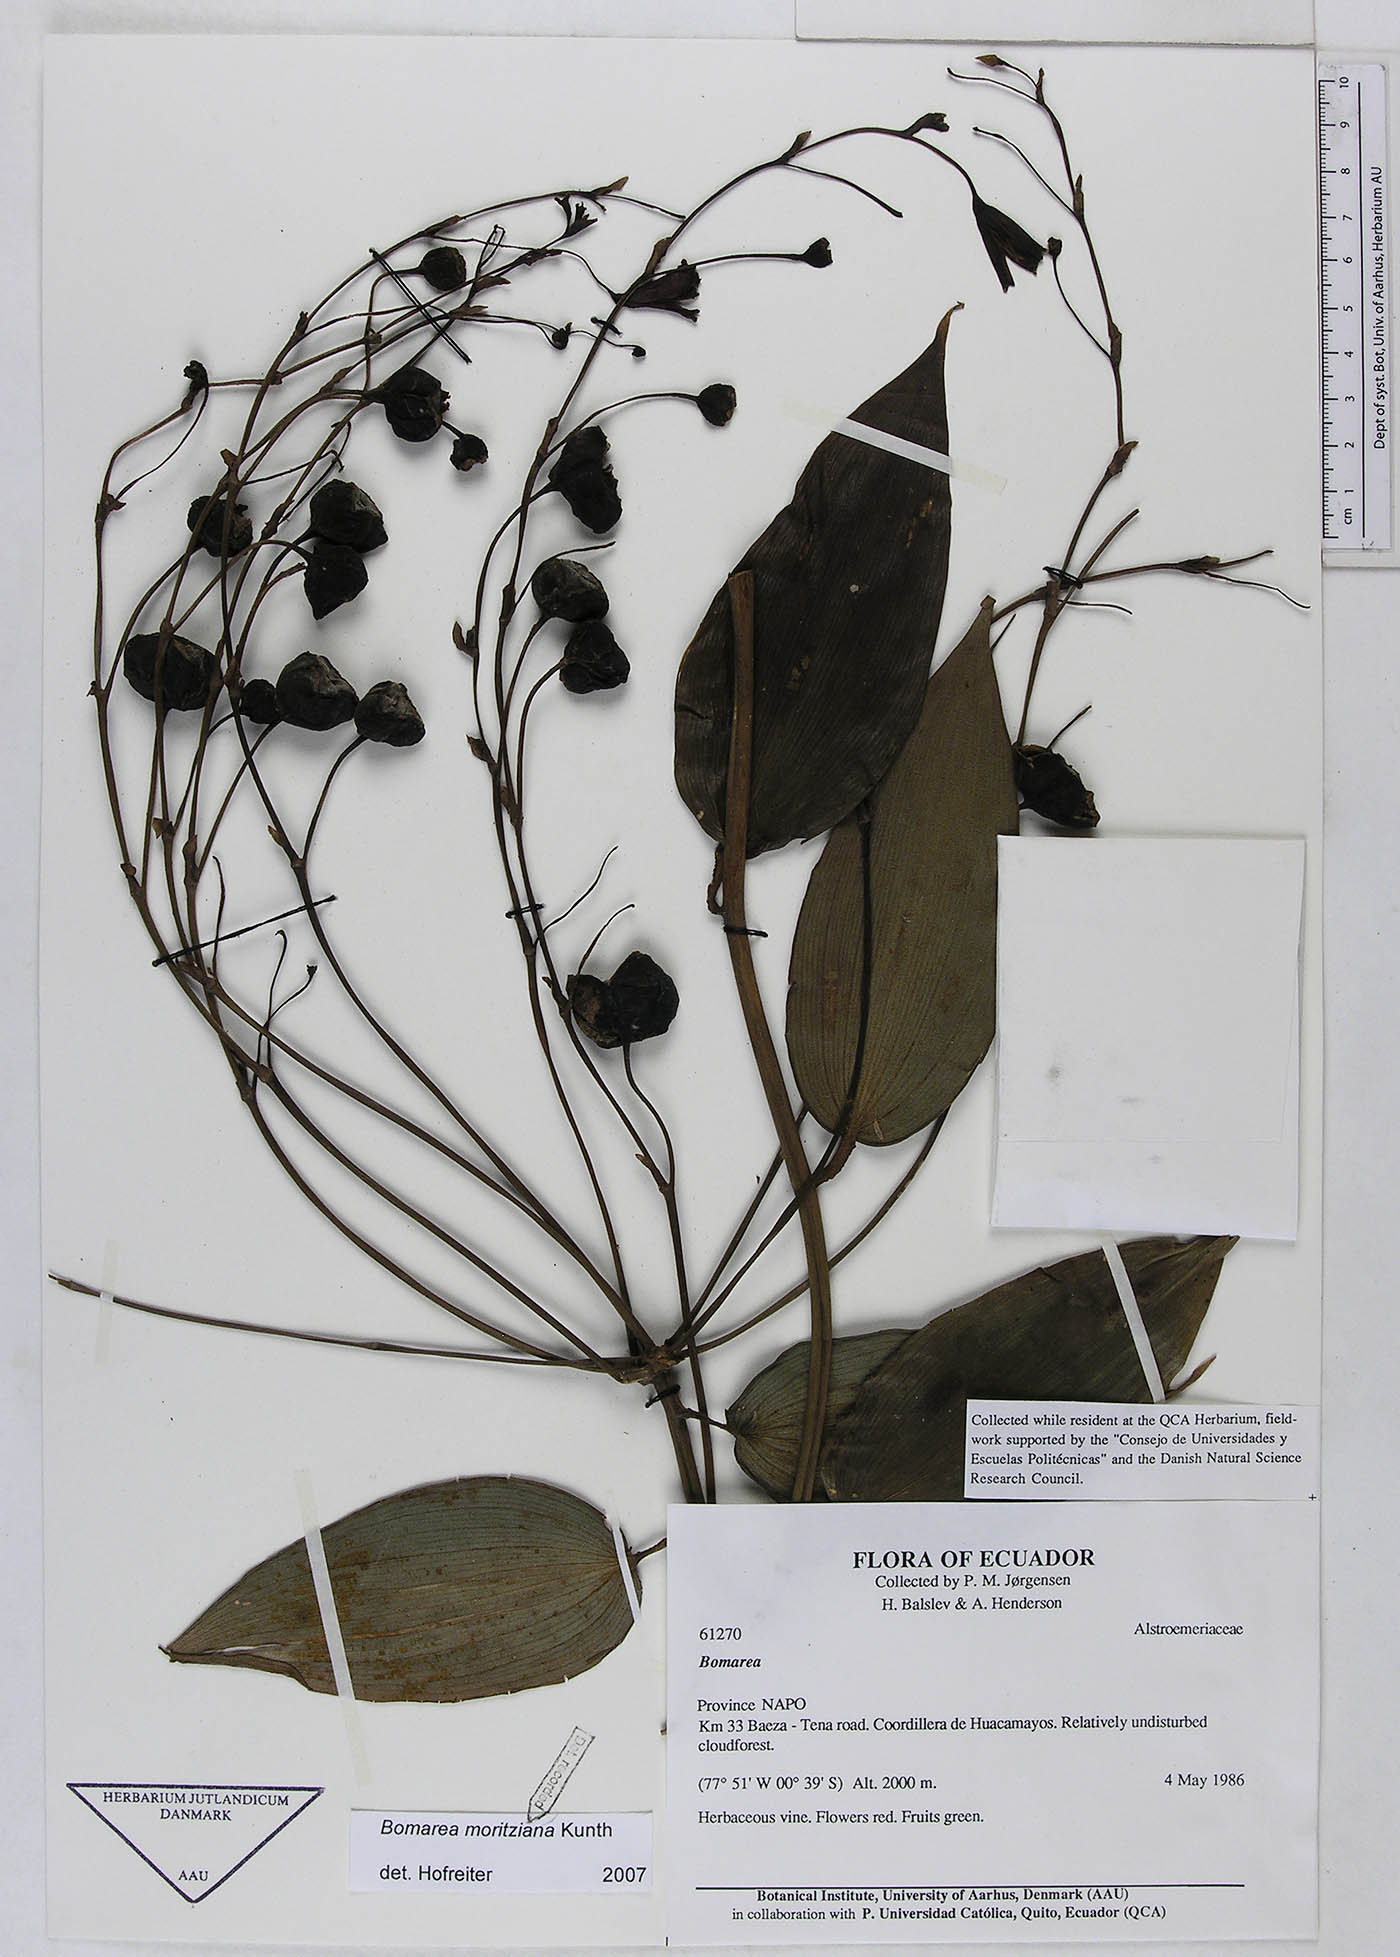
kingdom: Plantae
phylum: Tracheophyta
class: Liliopsida
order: Liliales
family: Alstroemeriaceae
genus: Bomarea
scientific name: Bomarea moritziana
